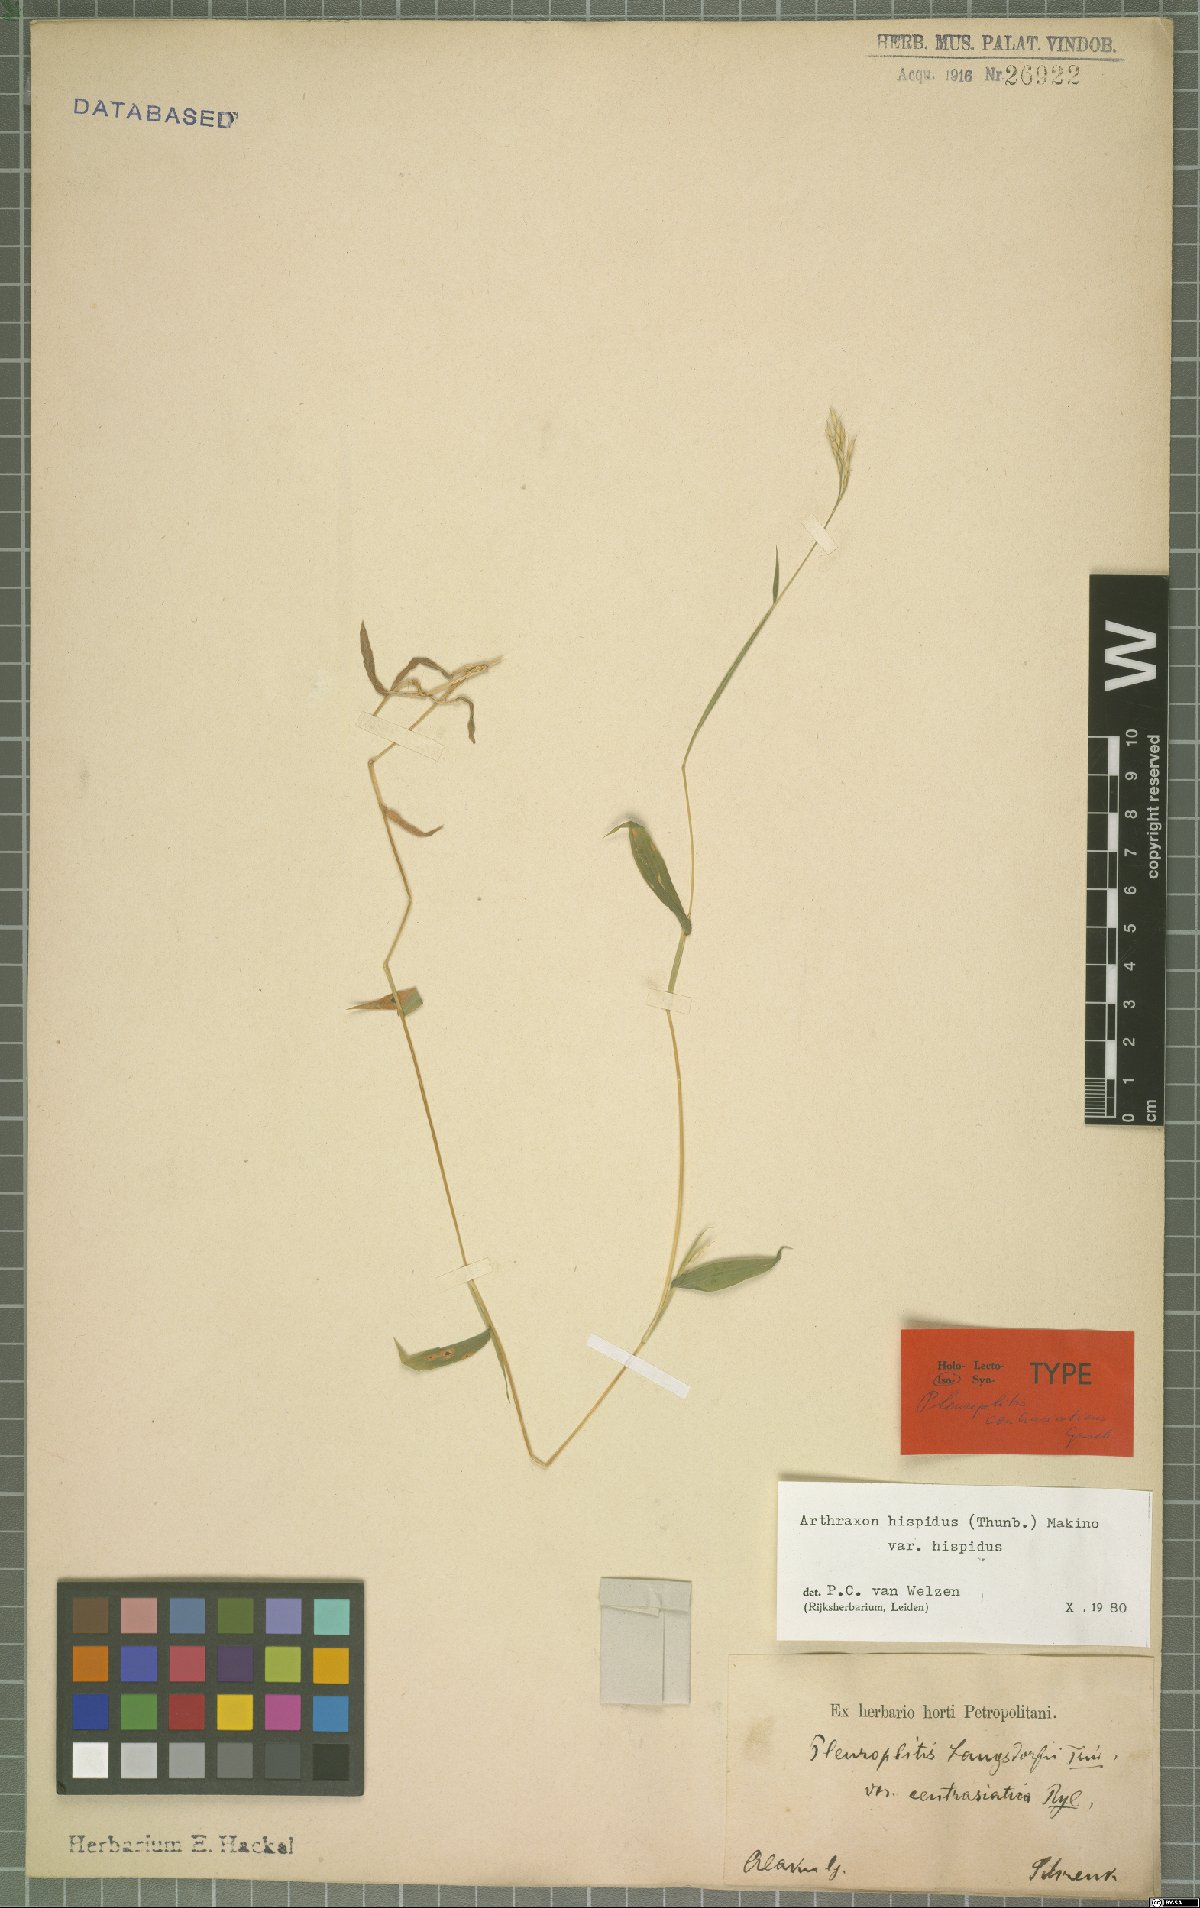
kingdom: Plantae
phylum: Tracheophyta
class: Liliopsida
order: Poales
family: Poaceae
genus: Arthraxon
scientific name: Arthraxon hispidus
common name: Small carpgrass
